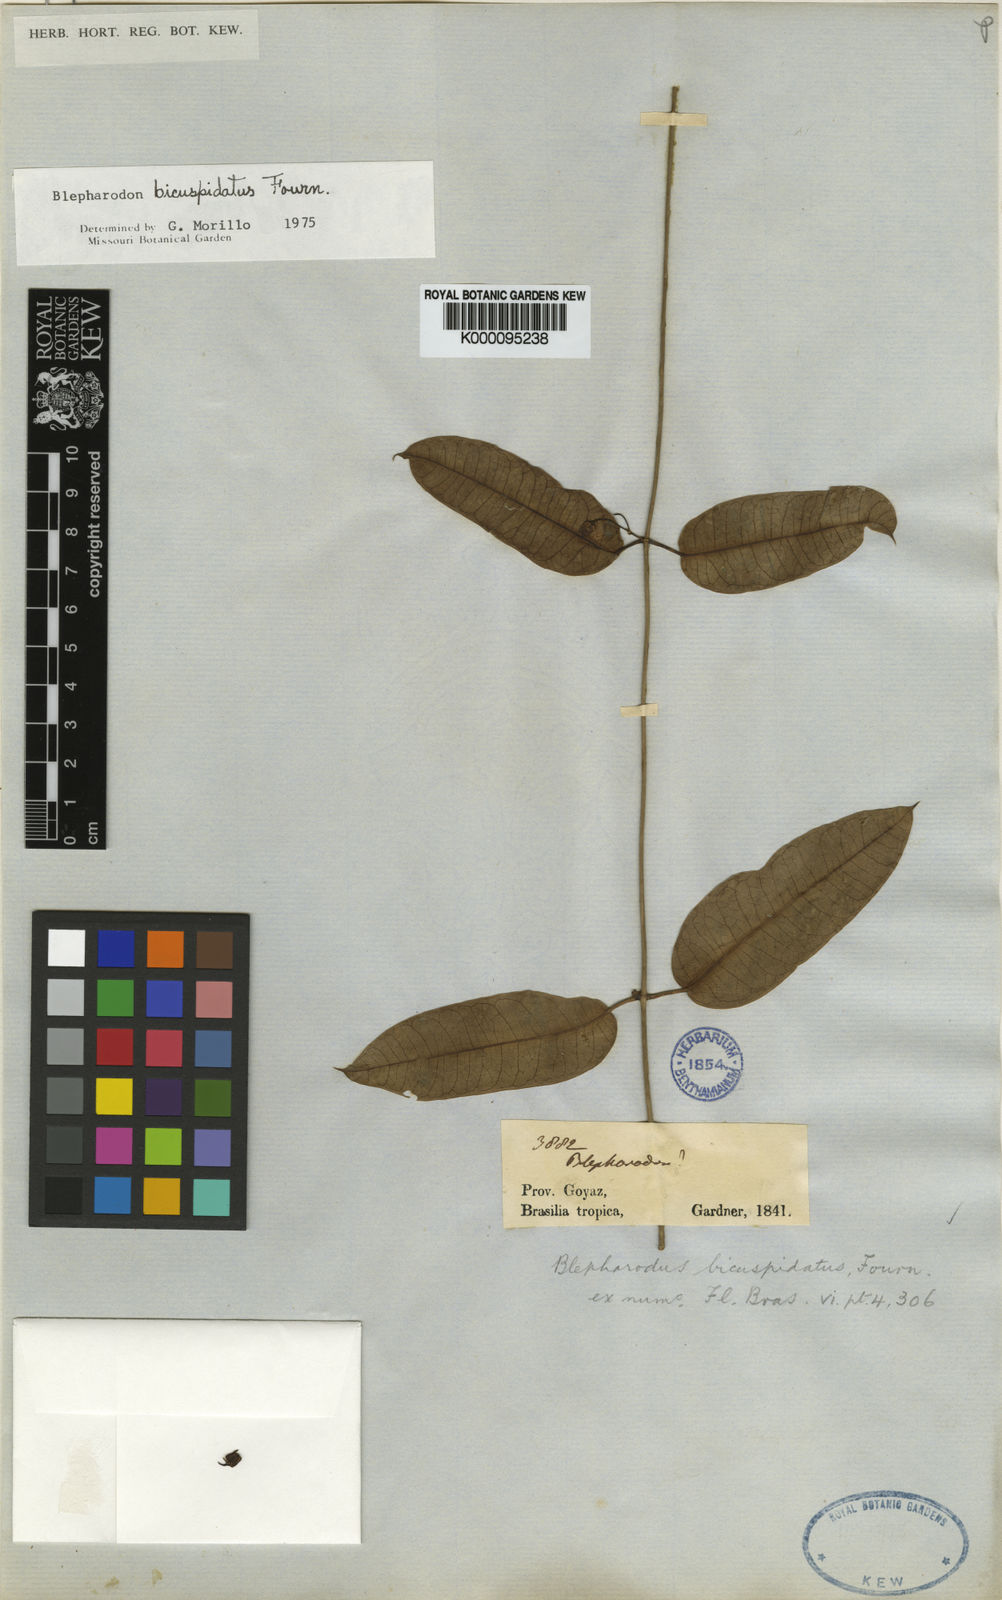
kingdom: Plantae
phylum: Tracheophyta
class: Magnoliopsida
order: Gentianales
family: Apocynaceae
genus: Blepharodon
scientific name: Blepharodon bicuspidatum
